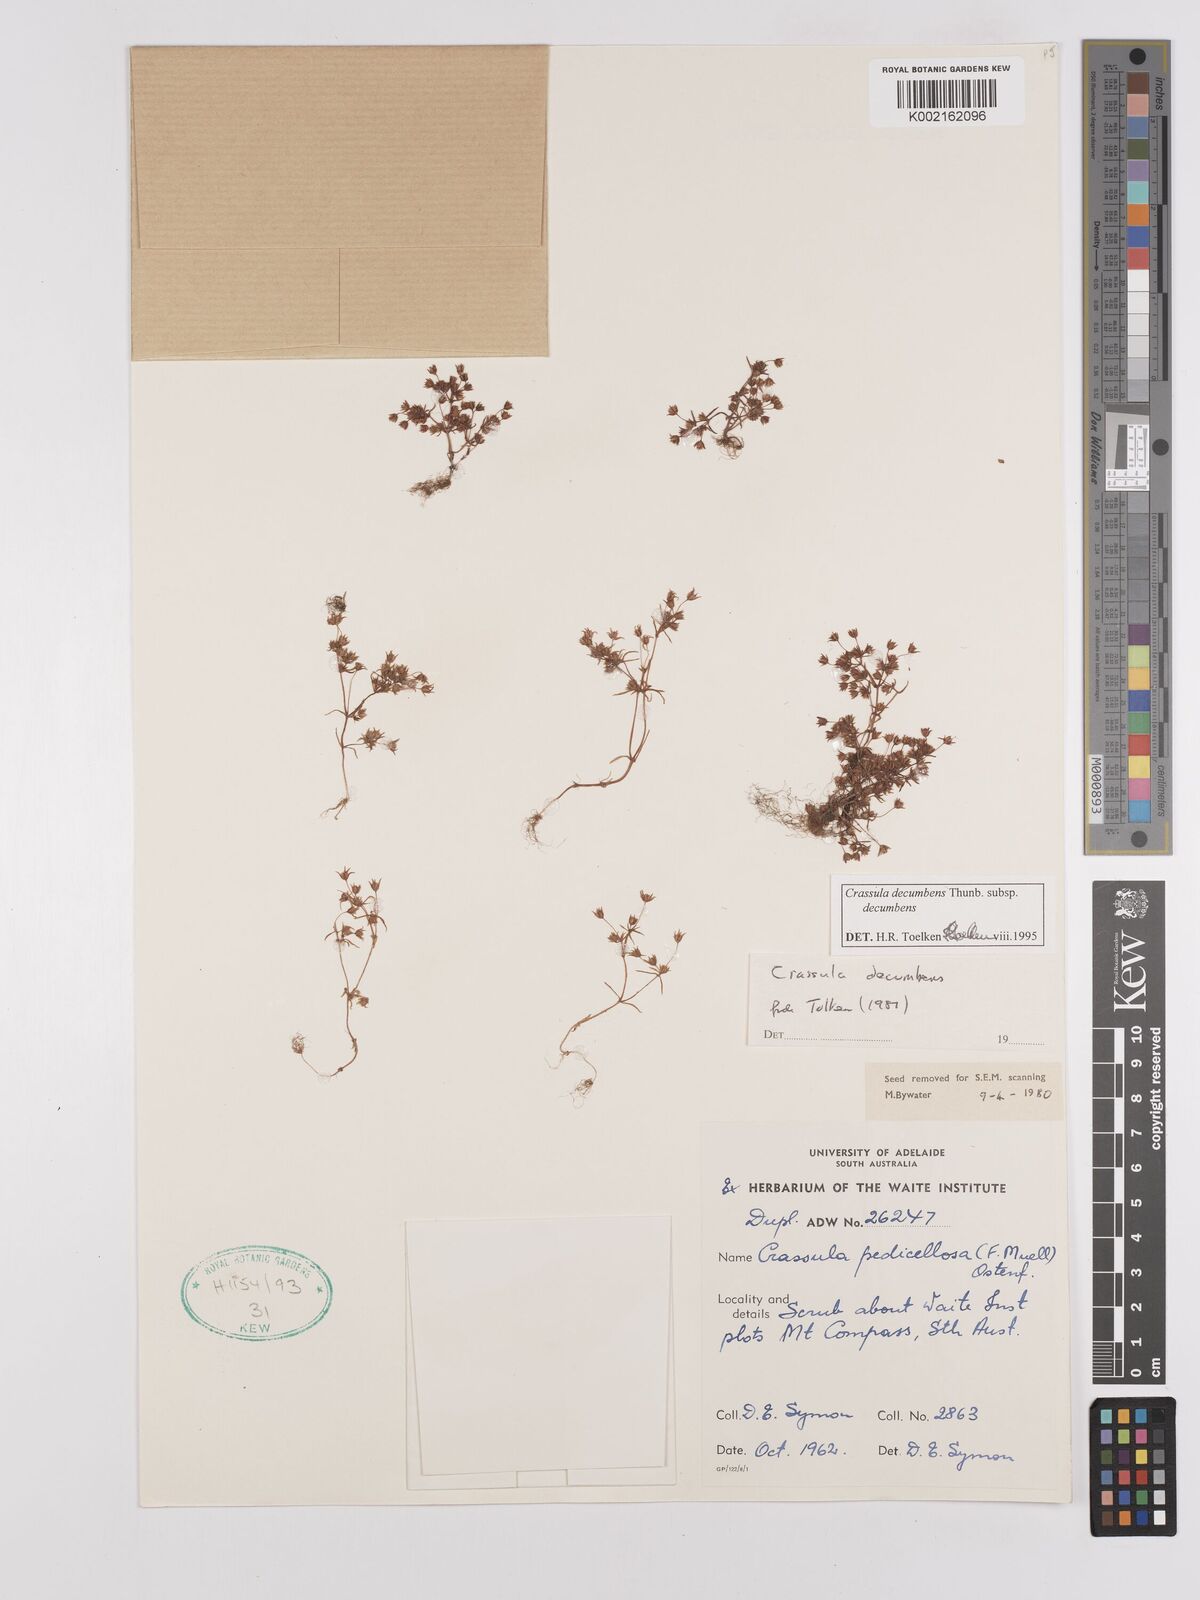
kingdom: Plantae
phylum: Tracheophyta
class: Magnoliopsida
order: Saxifragales
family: Crassulaceae
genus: Crassula
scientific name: Crassula decumbens
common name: Scilly pigmyweed
